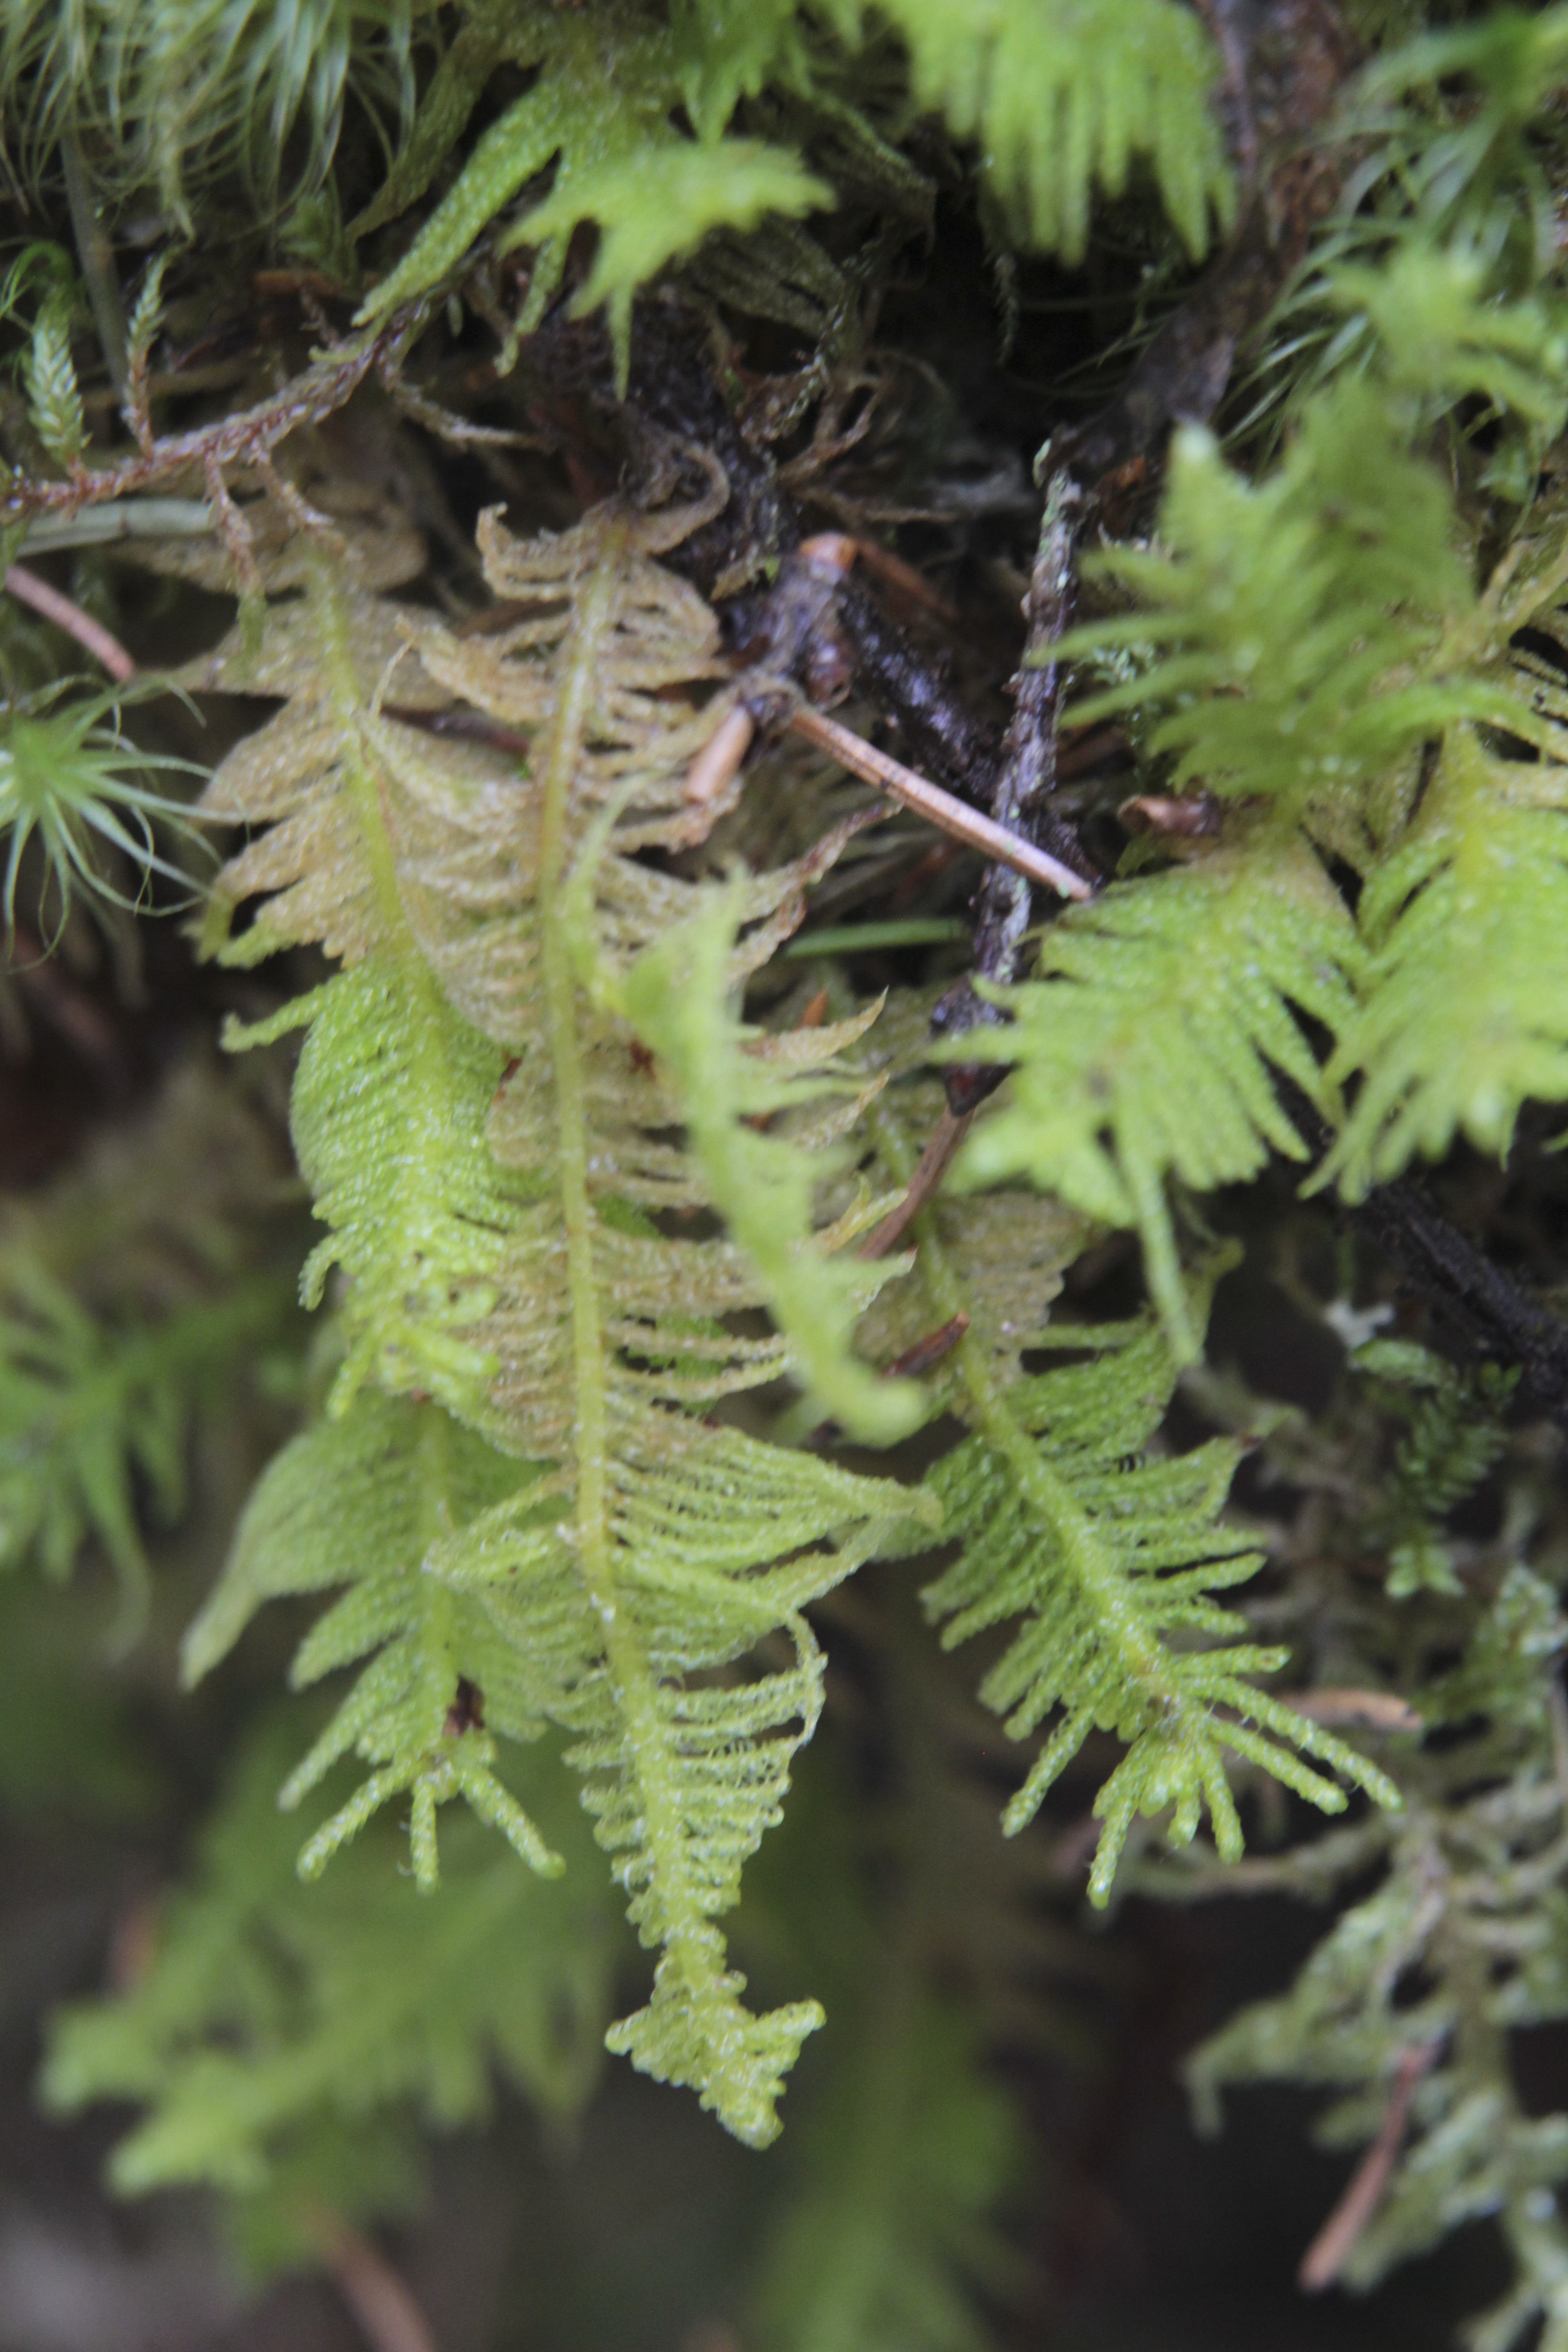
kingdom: Plantae
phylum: Bryophyta
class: Bryopsida
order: Hypnales
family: Pylaisiaceae
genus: Ptilium
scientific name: Ptilium crista-castrensis
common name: Knight's plume moss
